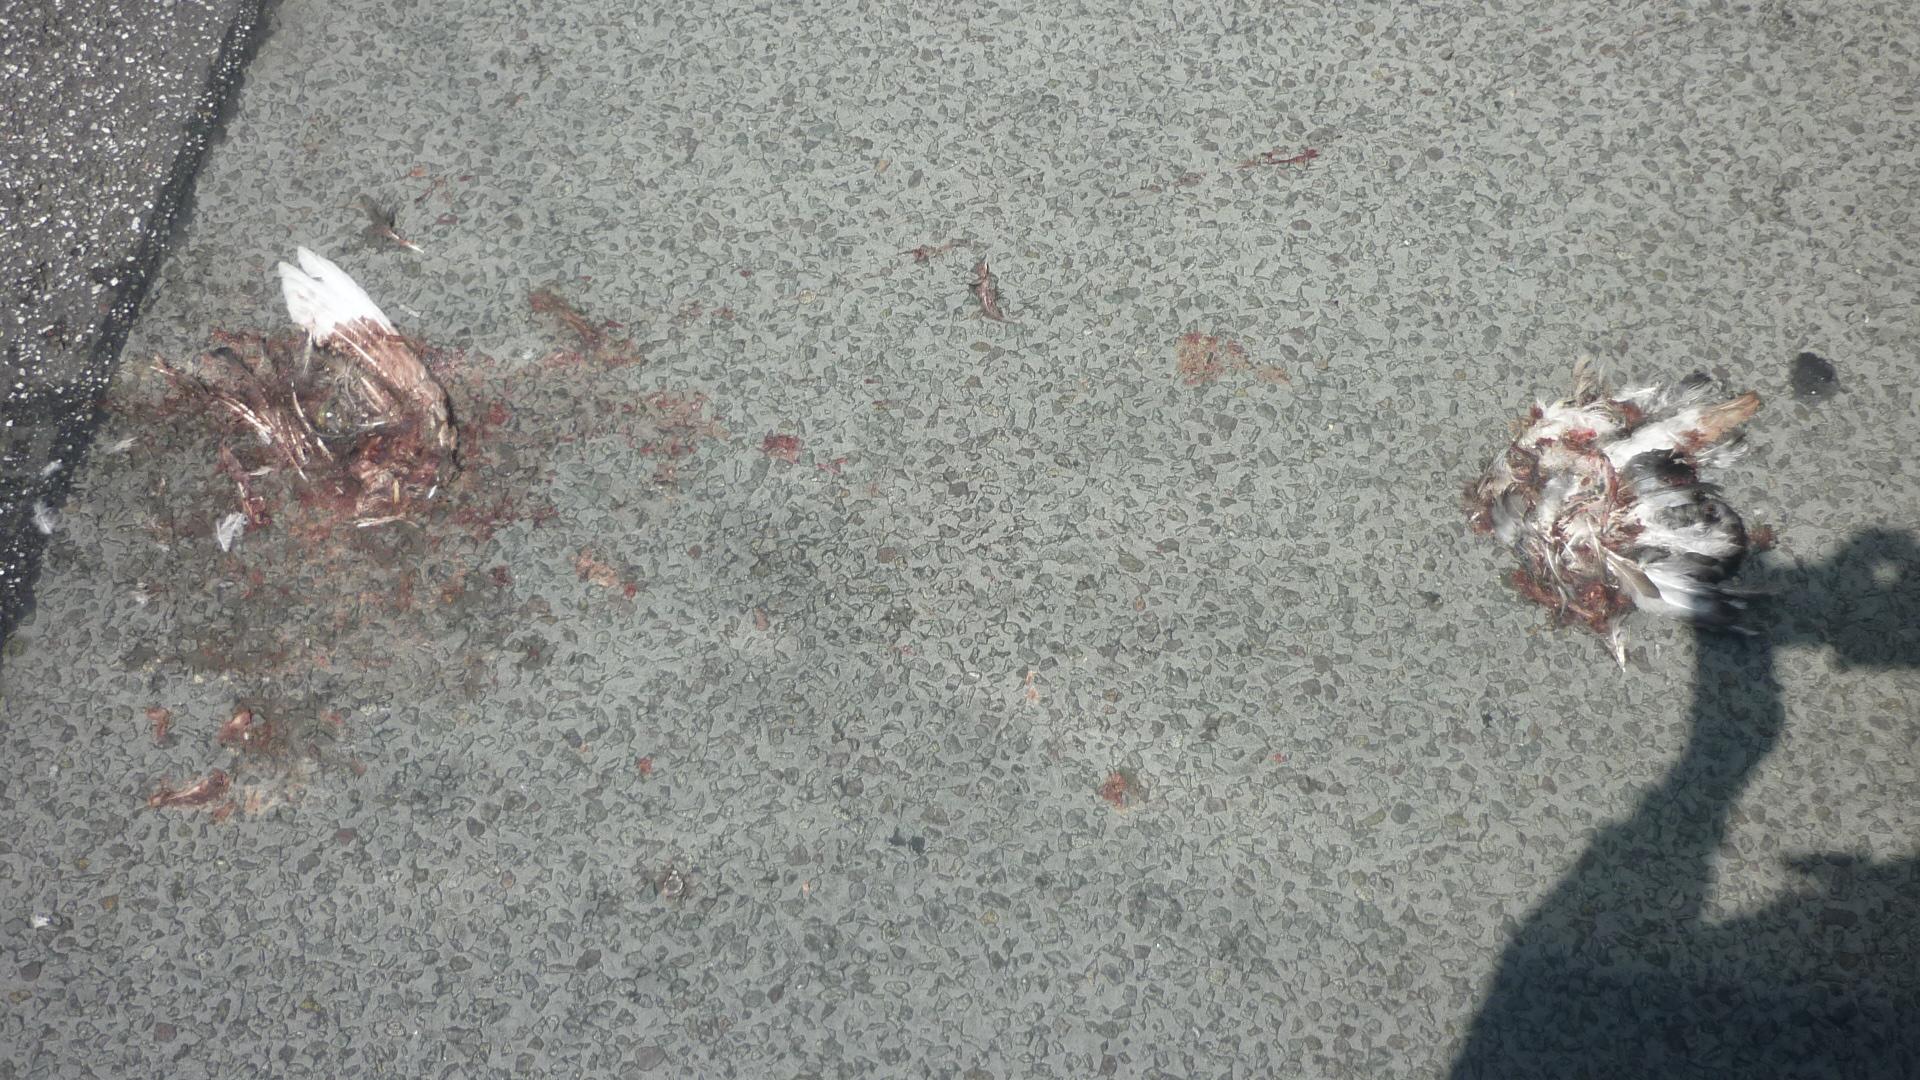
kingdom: Animalia
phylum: Chordata
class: Aves
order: Columbiformes
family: Columbidae
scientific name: Columbidae
